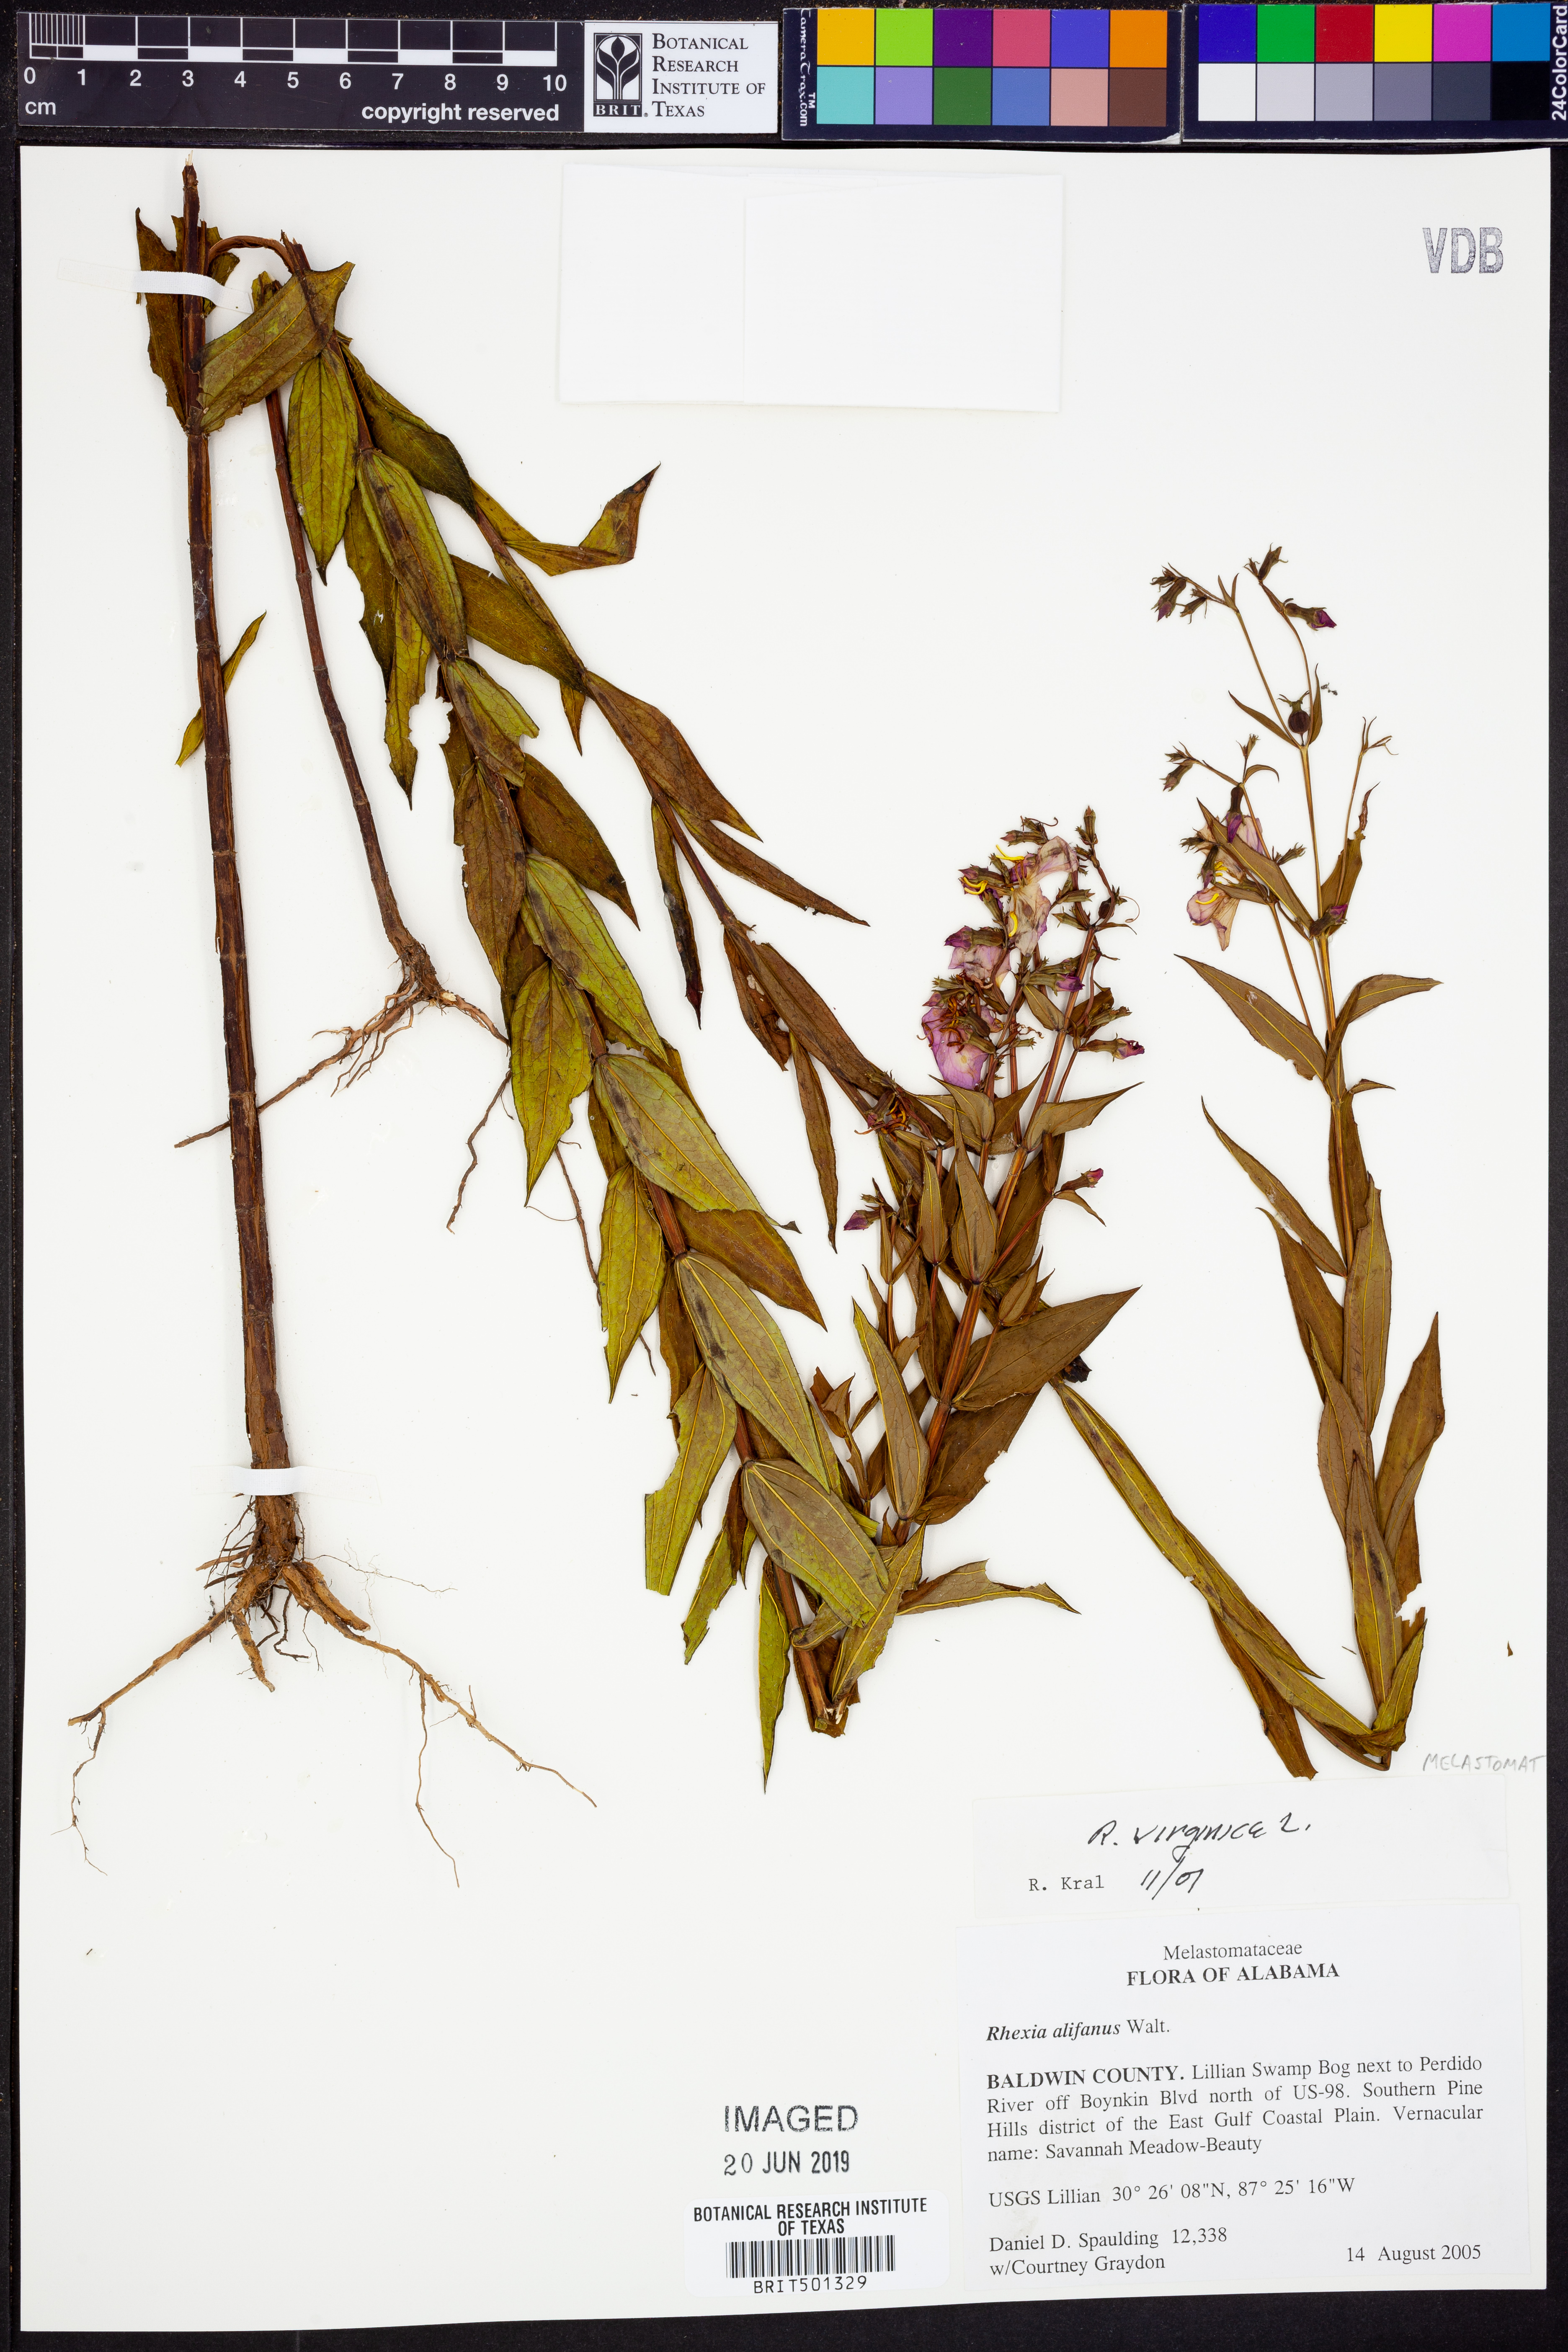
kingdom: Plantae
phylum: Tracheophyta
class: Magnoliopsida
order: Myrtales
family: Melastomataceae
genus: Rhexia
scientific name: Rhexia virginica
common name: Common meadow beauty
